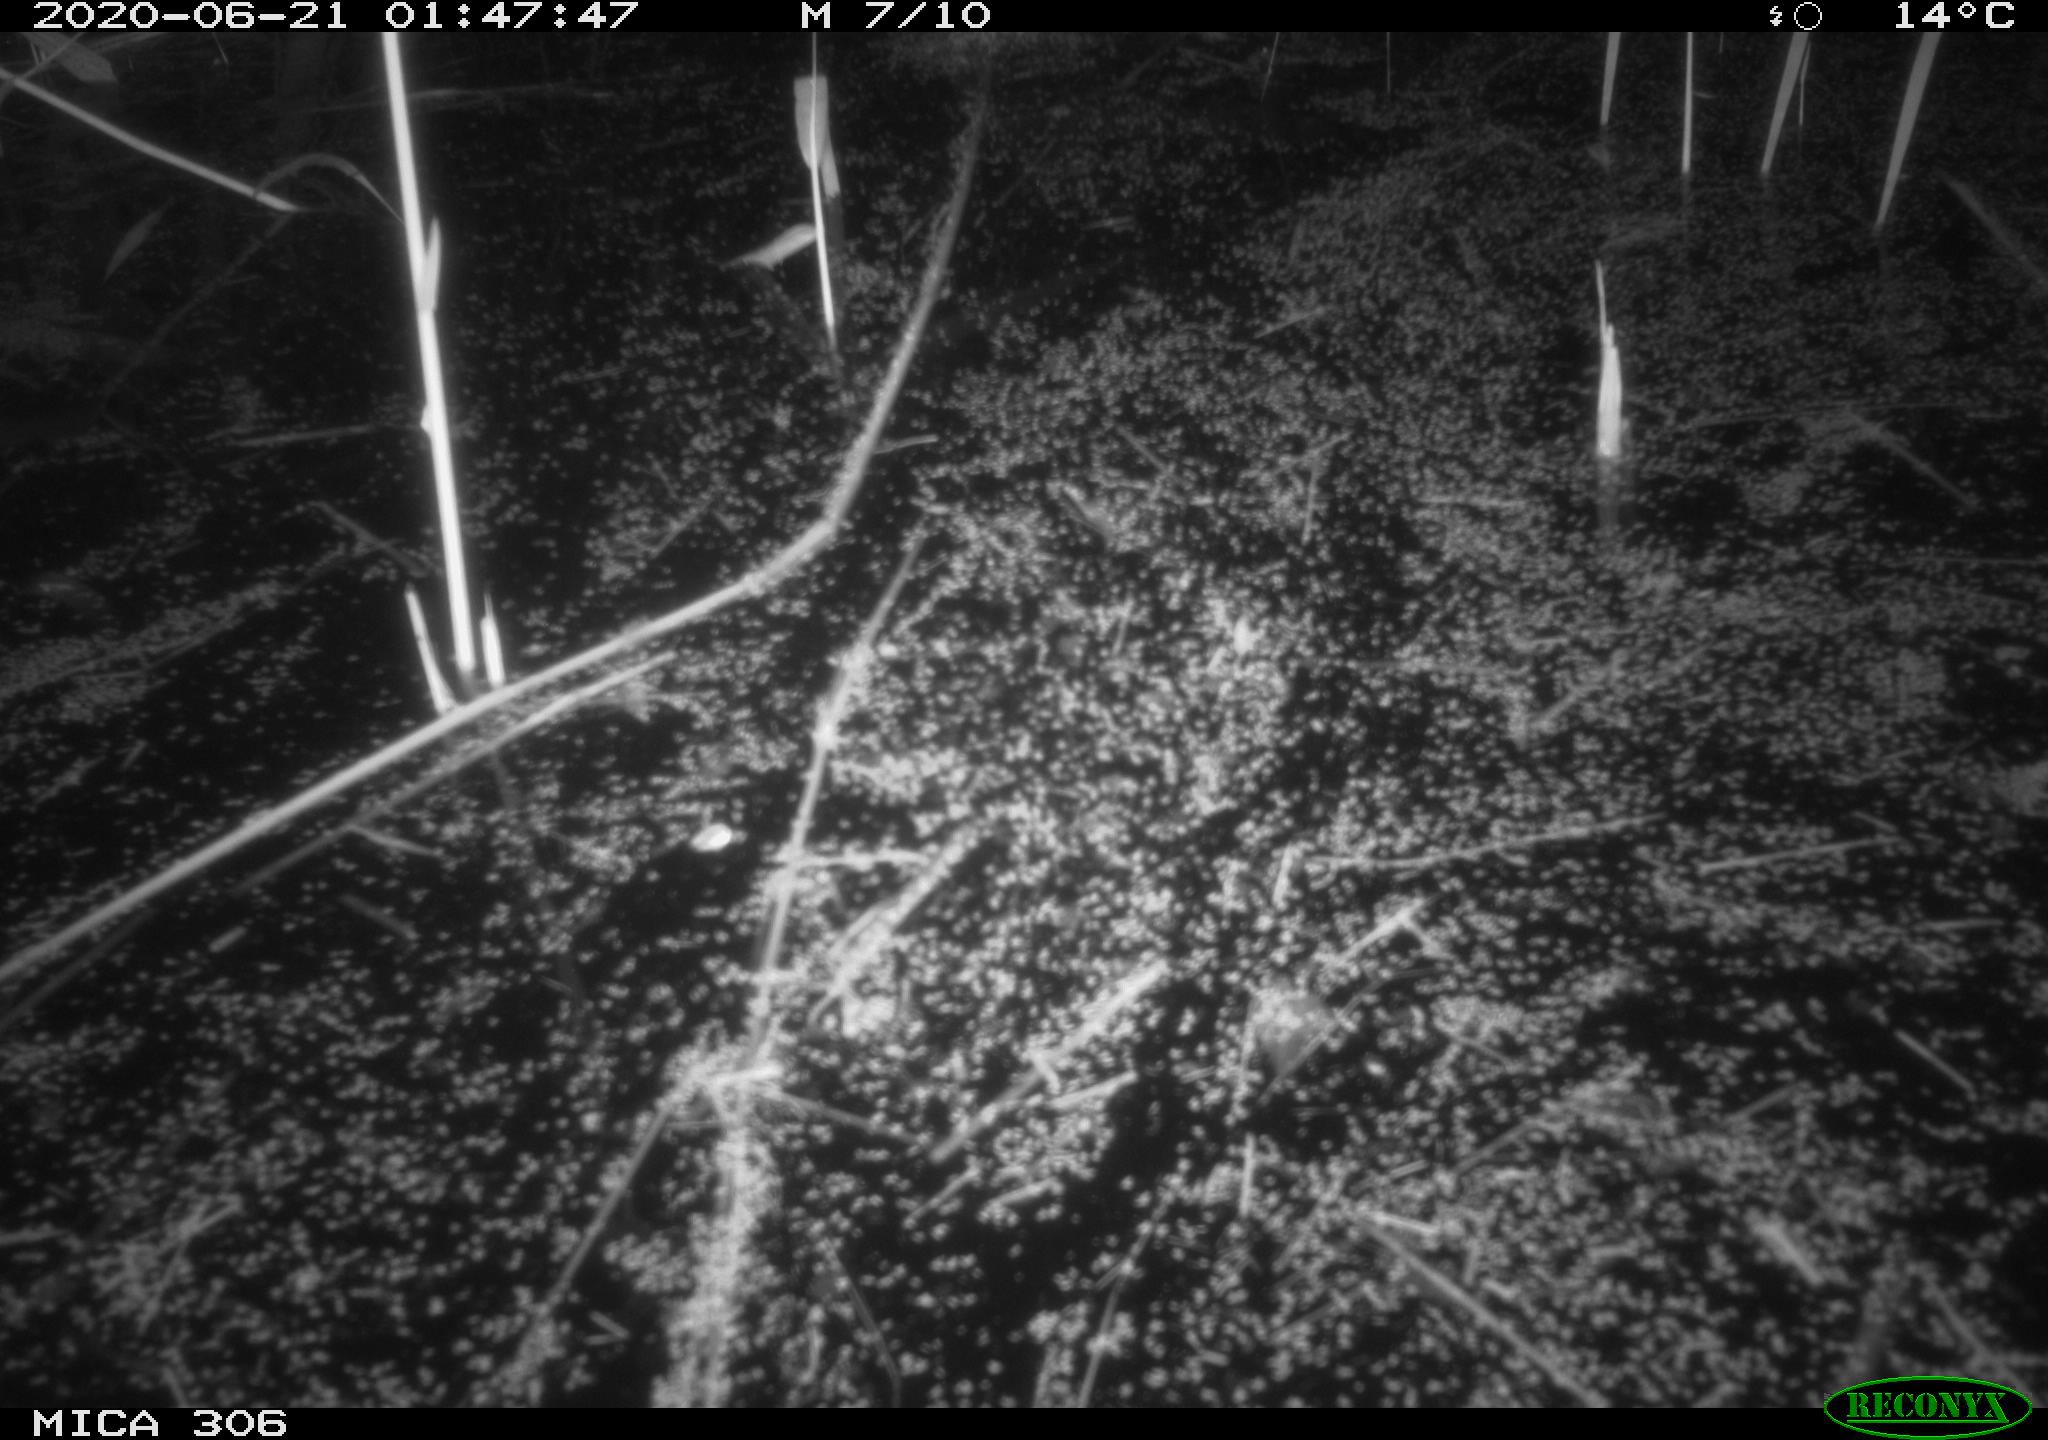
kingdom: Animalia
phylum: Chordata
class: Mammalia
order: Rodentia
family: Muridae
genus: Rattus
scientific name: Rattus norvegicus
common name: Brown rat
